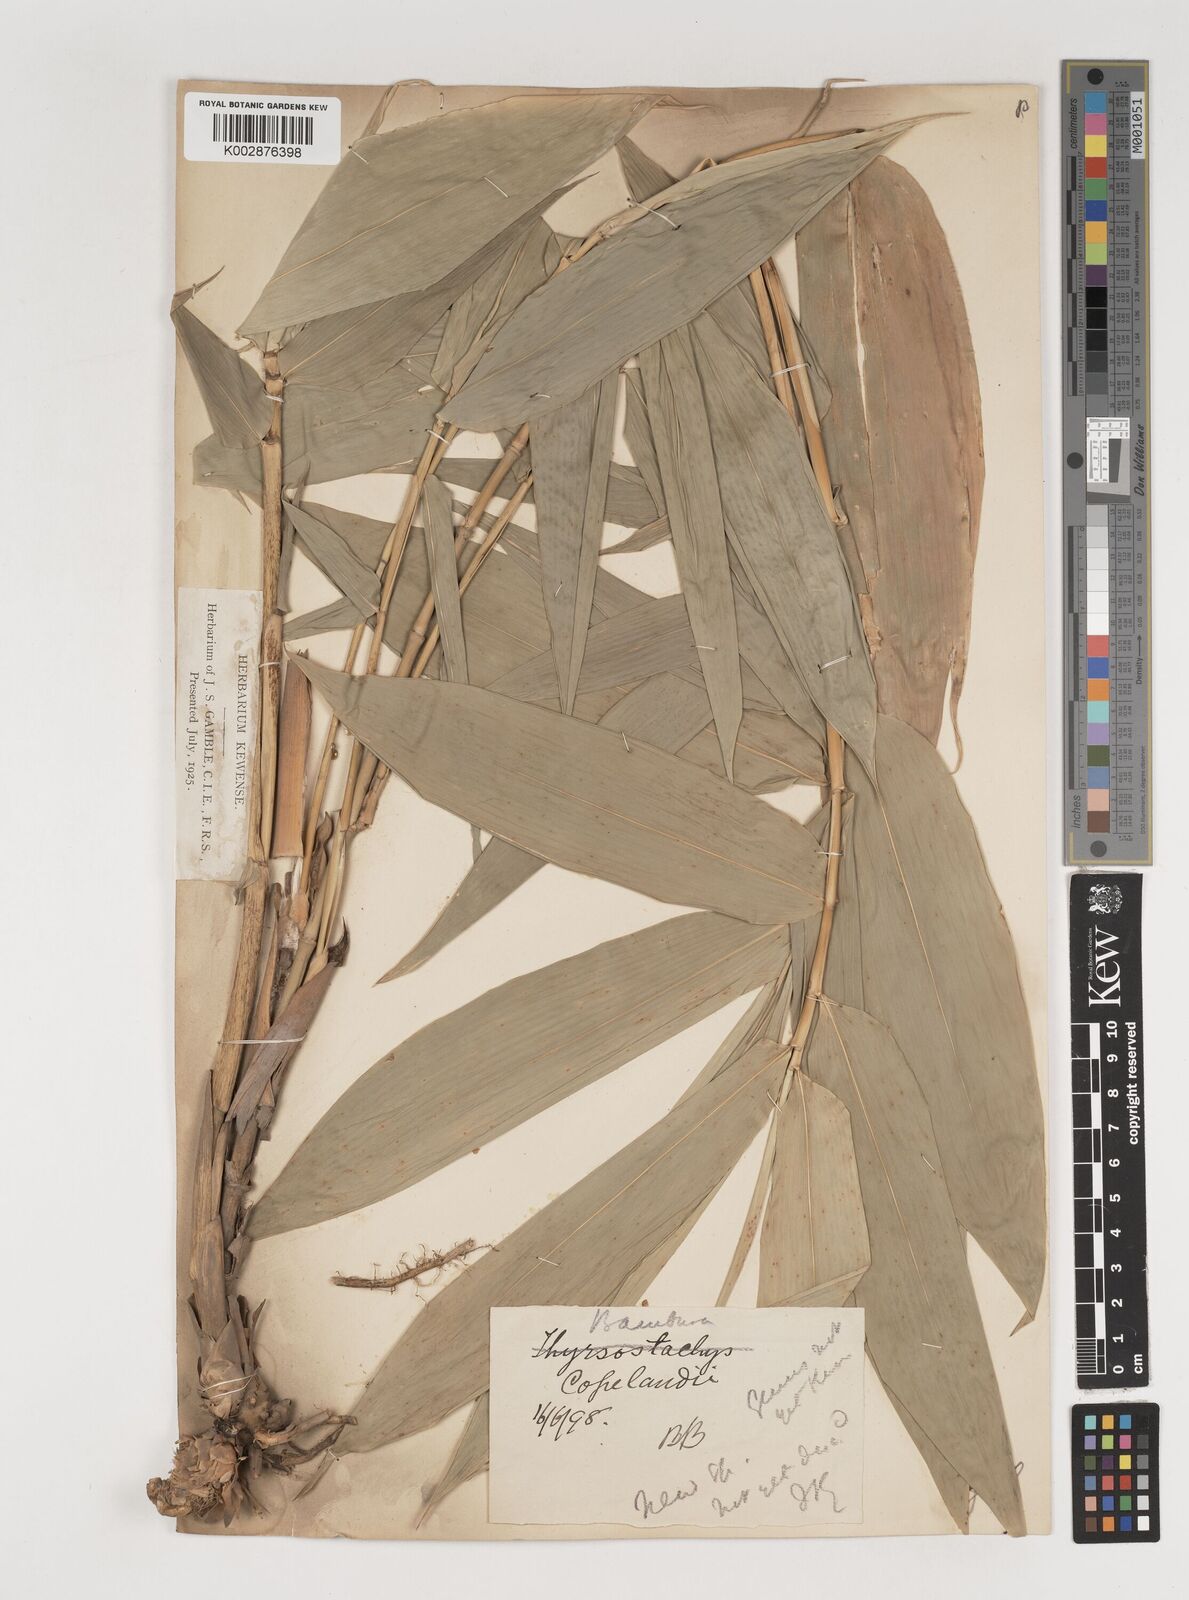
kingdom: Plantae
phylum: Tracheophyta
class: Liliopsida
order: Poales
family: Poaceae
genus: Bambusa
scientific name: Bambusa copelandii
